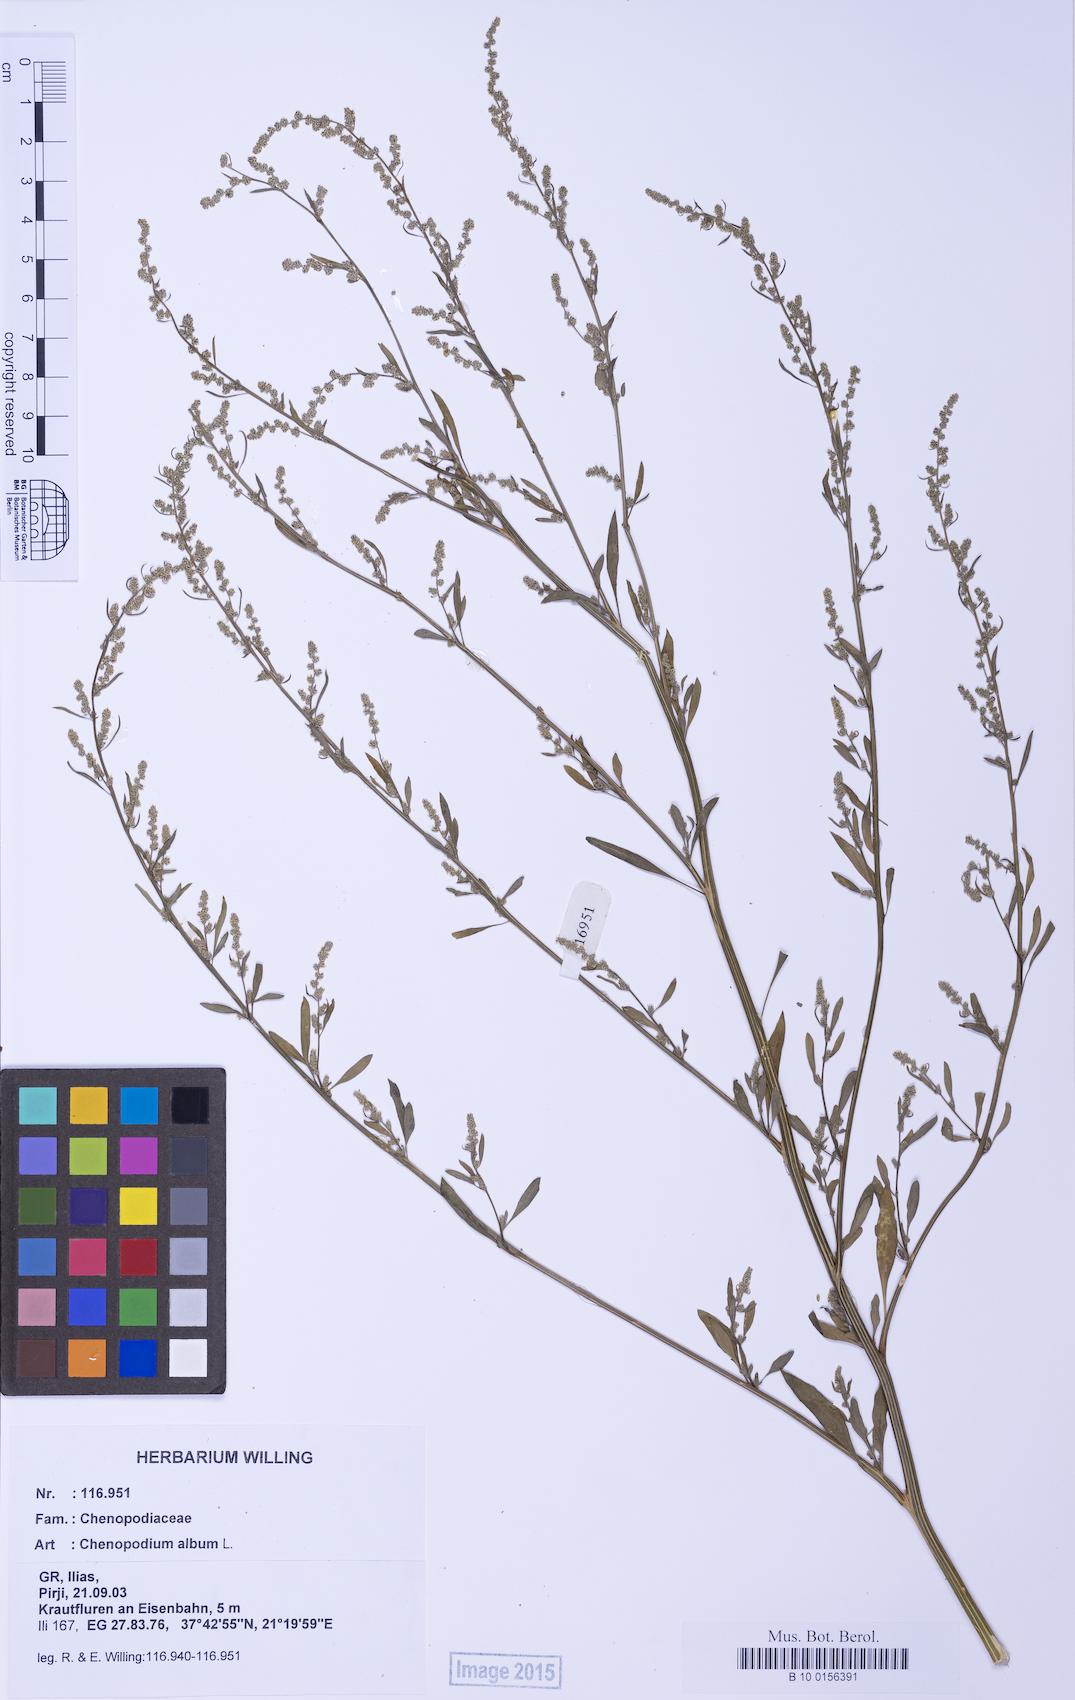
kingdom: Plantae
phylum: Tracheophyta
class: Magnoliopsida
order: Caryophyllales
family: Amaranthaceae
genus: Chenopodium
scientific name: Chenopodium album
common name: Fat-hen
